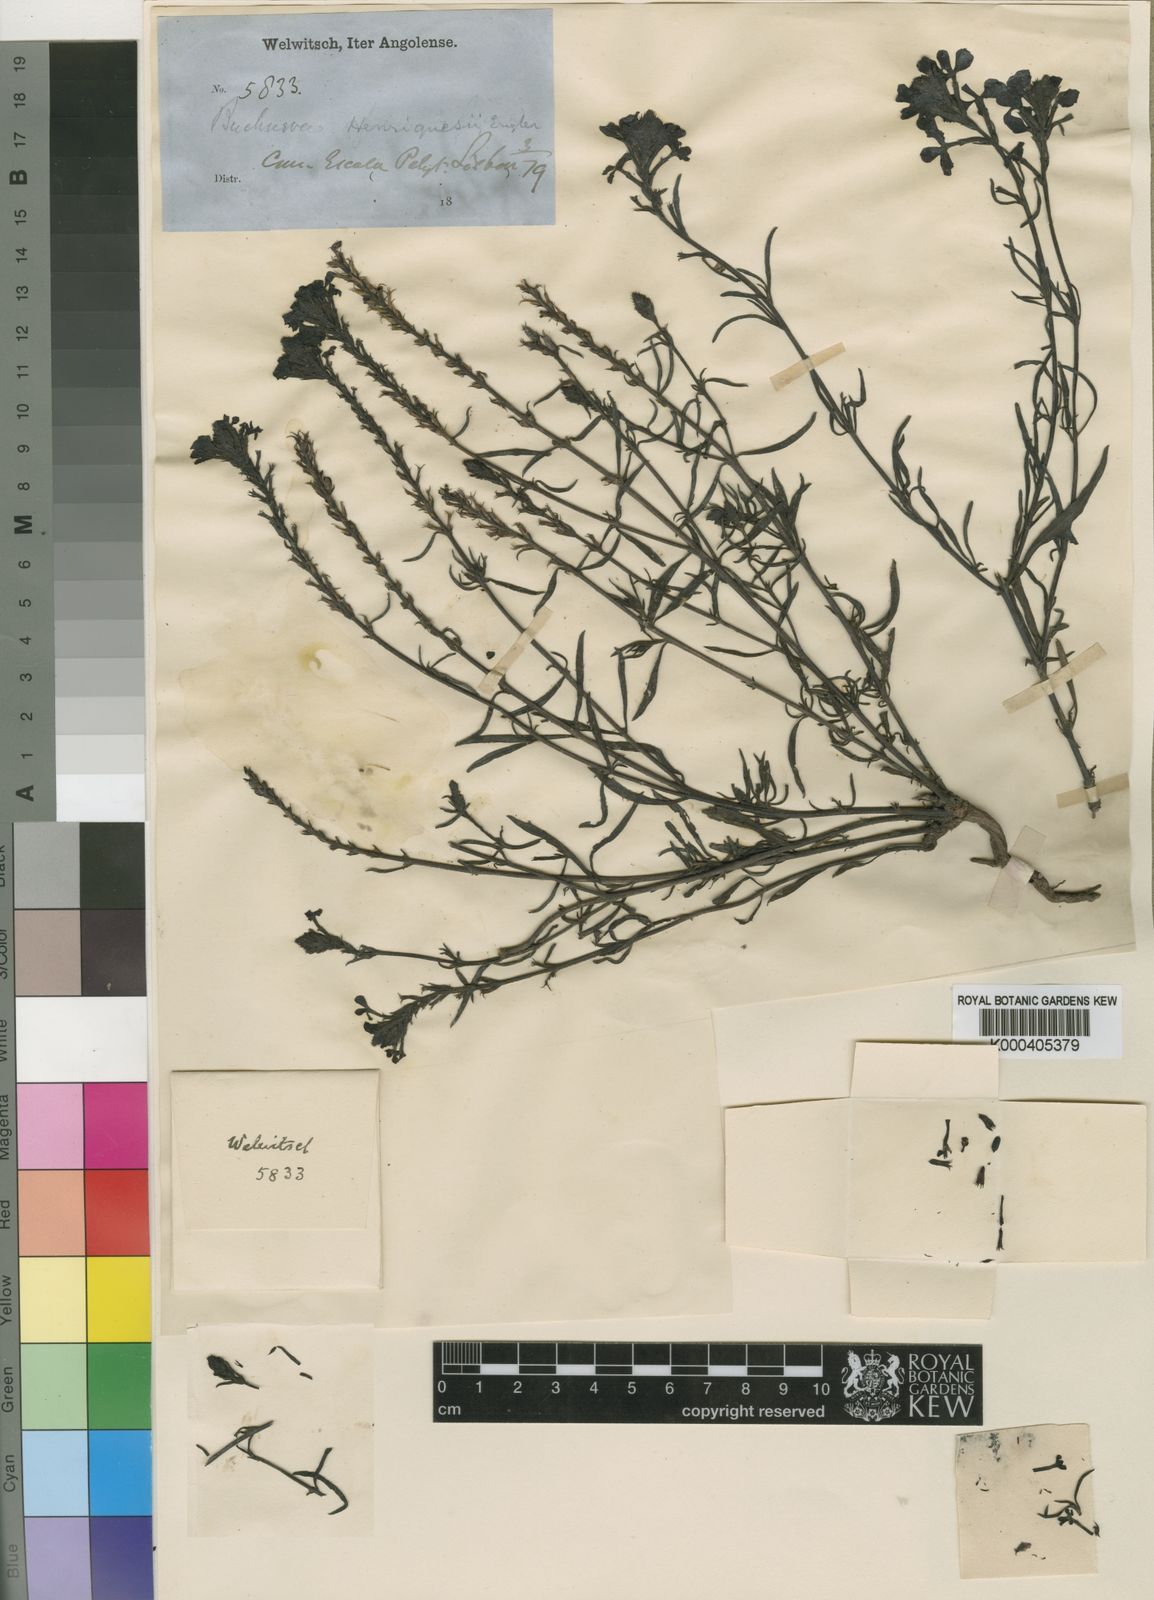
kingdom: Plantae
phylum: Tracheophyta
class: Magnoliopsida
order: Lamiales
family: Orobanchaceae
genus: Buchnera
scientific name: Buchnera henriquesii
